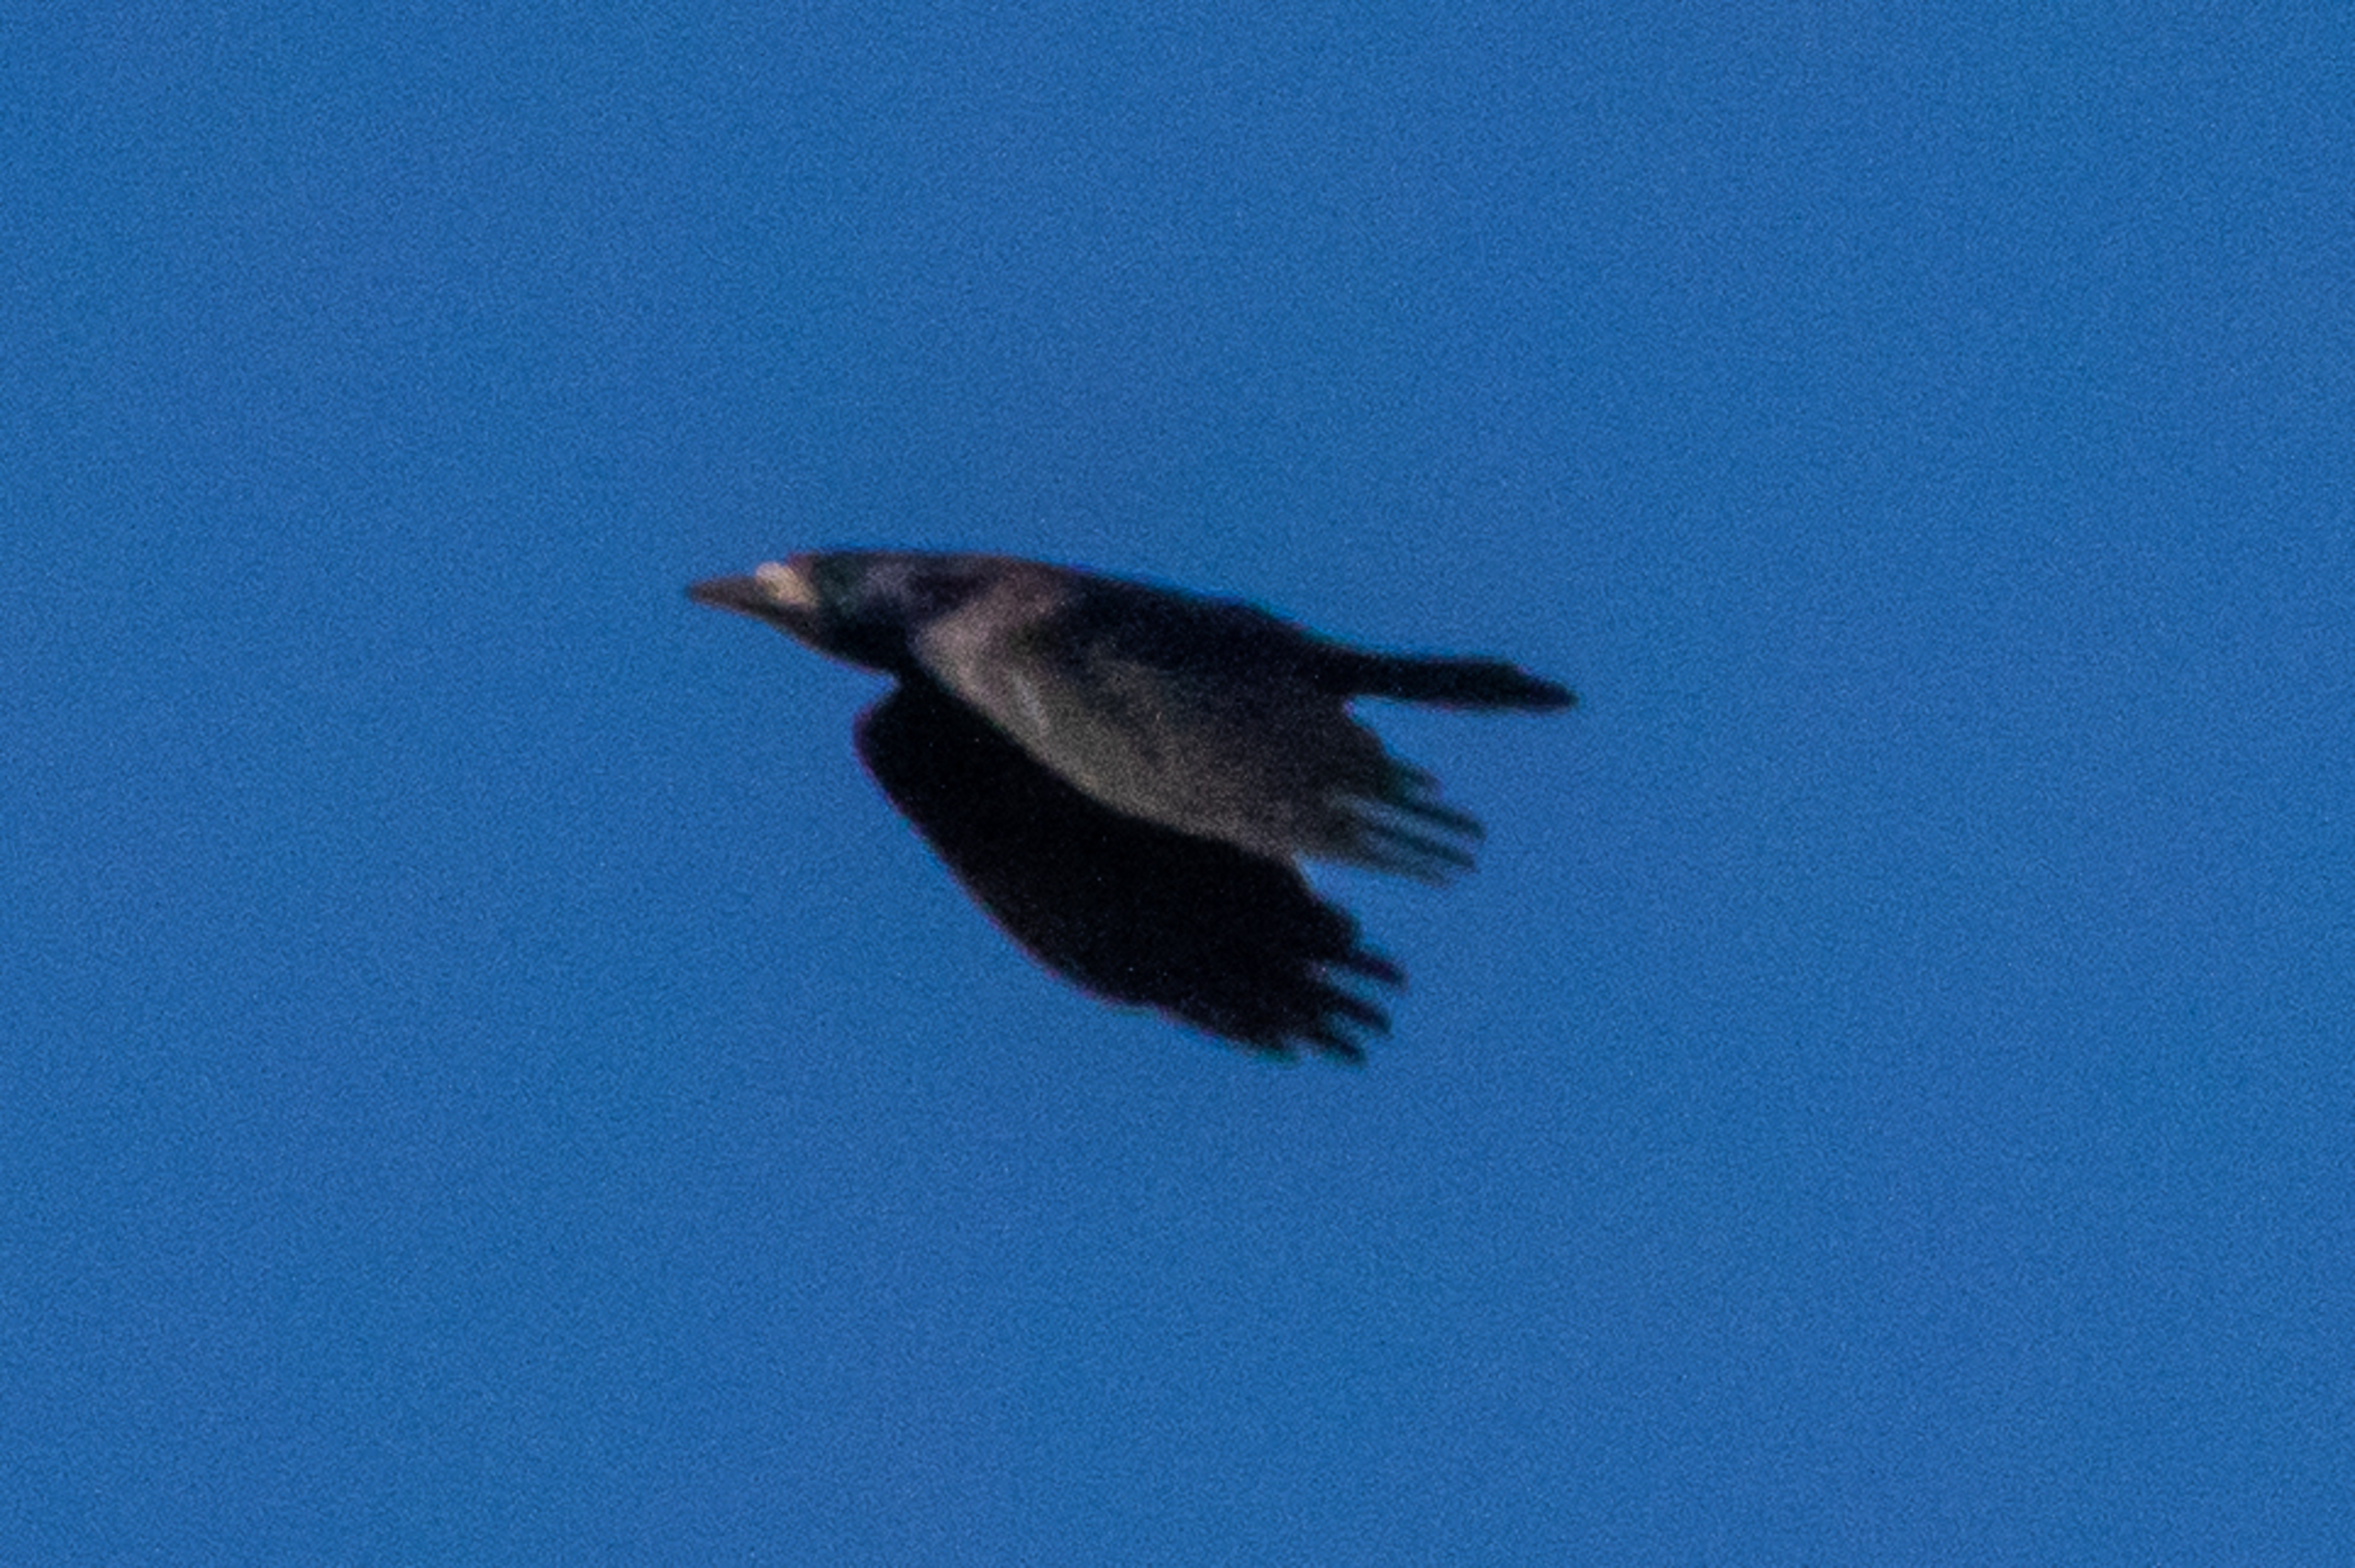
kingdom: Animalia
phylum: Chordata
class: Aves
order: Passeriformes
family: Corvidae
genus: Corvus
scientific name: Corvus frugilegus
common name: Råge
